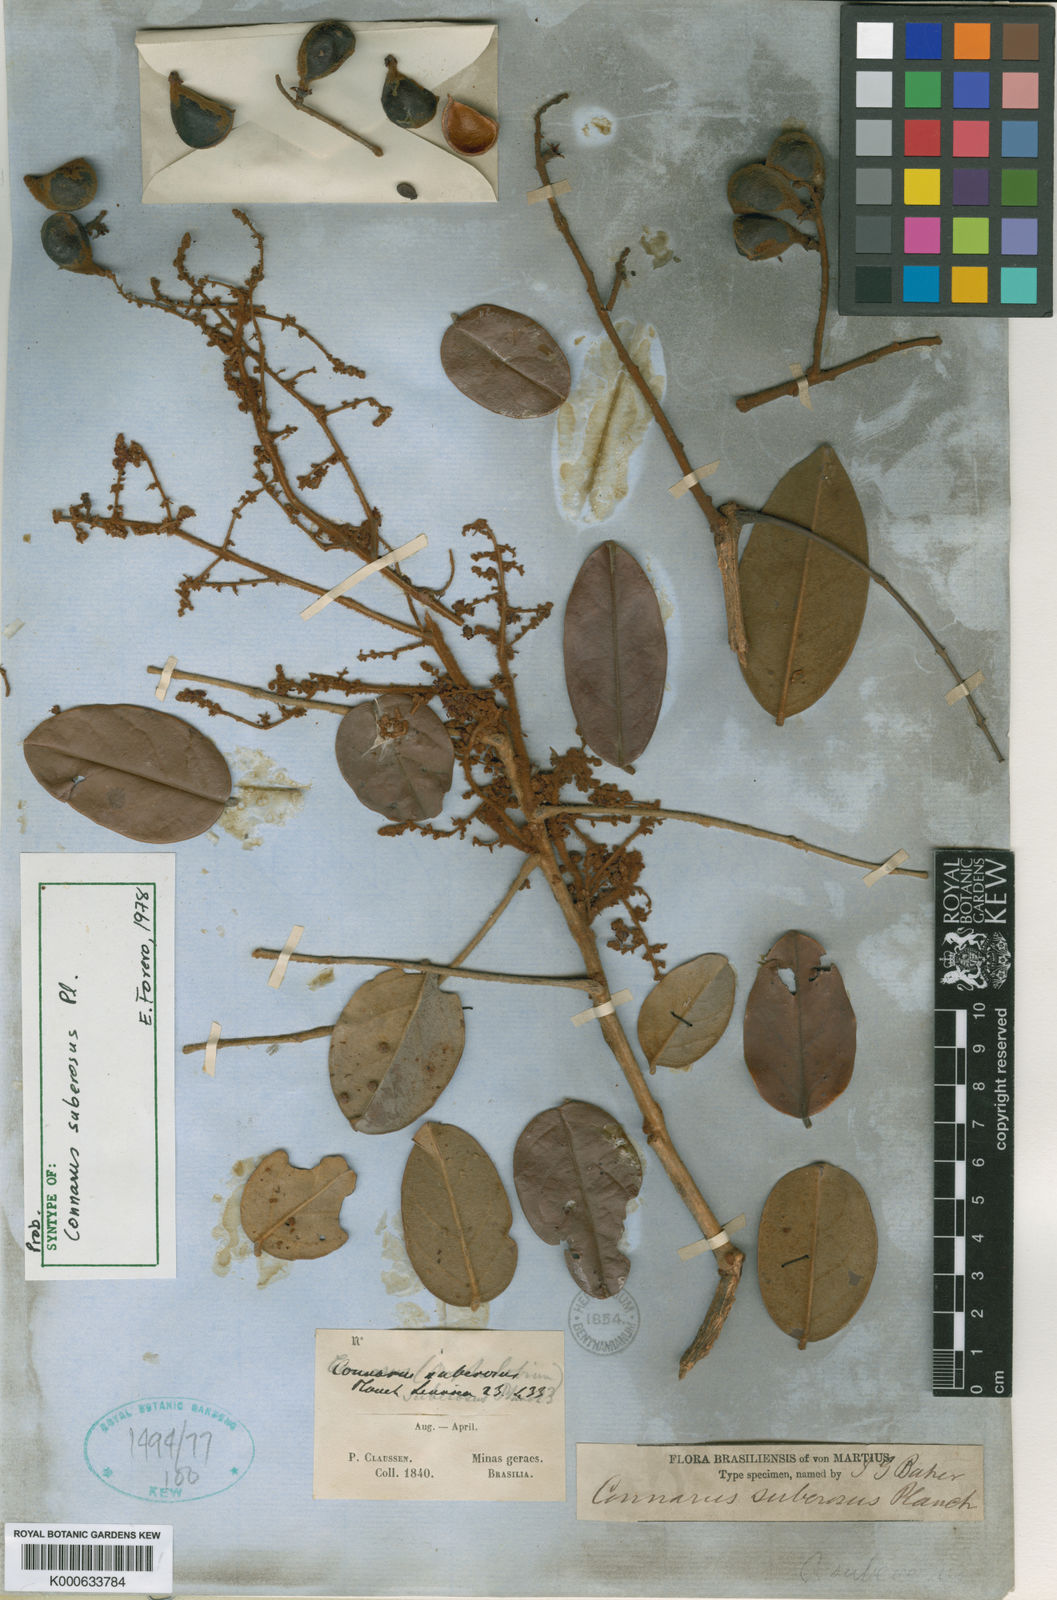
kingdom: Plantae
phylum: Tracheophyta
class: Magnoliopsida
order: Oxalidales
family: Connaraceae
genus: Connarus
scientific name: Connarus suberosus
